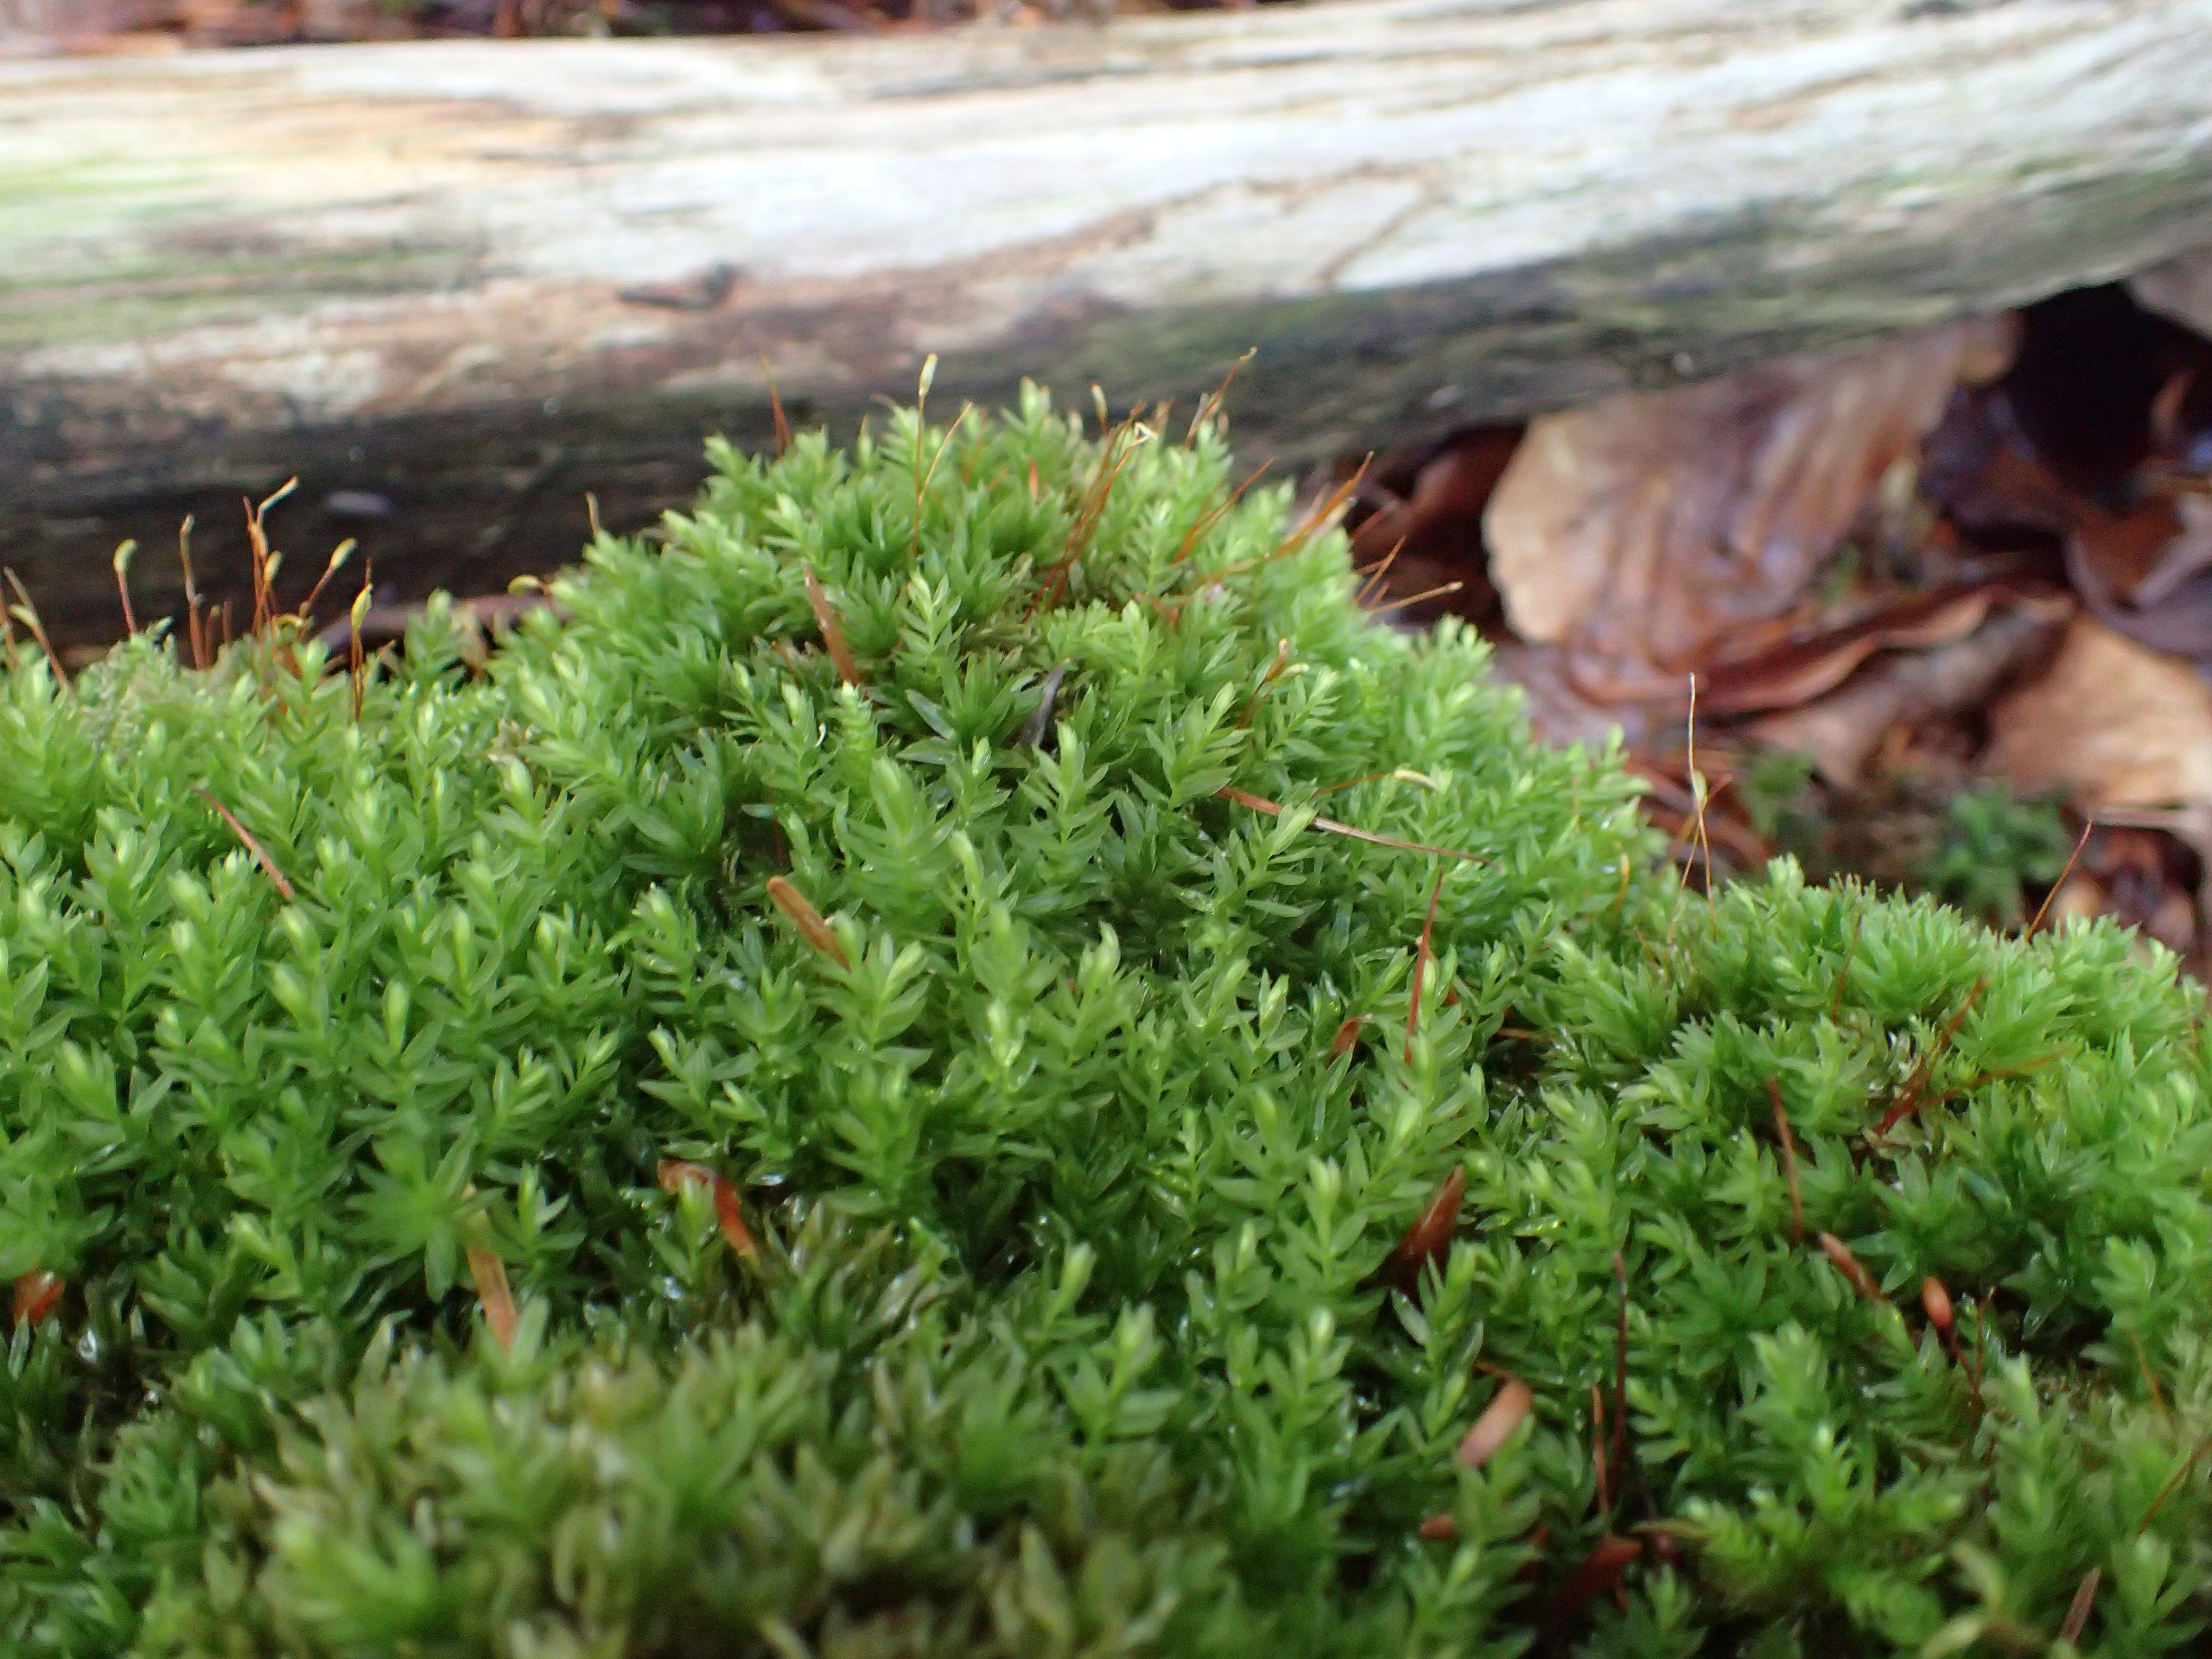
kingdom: Plantae
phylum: Bryophyta
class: Bryopsida
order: Bryales
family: Mniaceae
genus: Mnium
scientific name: Mnium hornum
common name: Brunfiltet stjernemos
